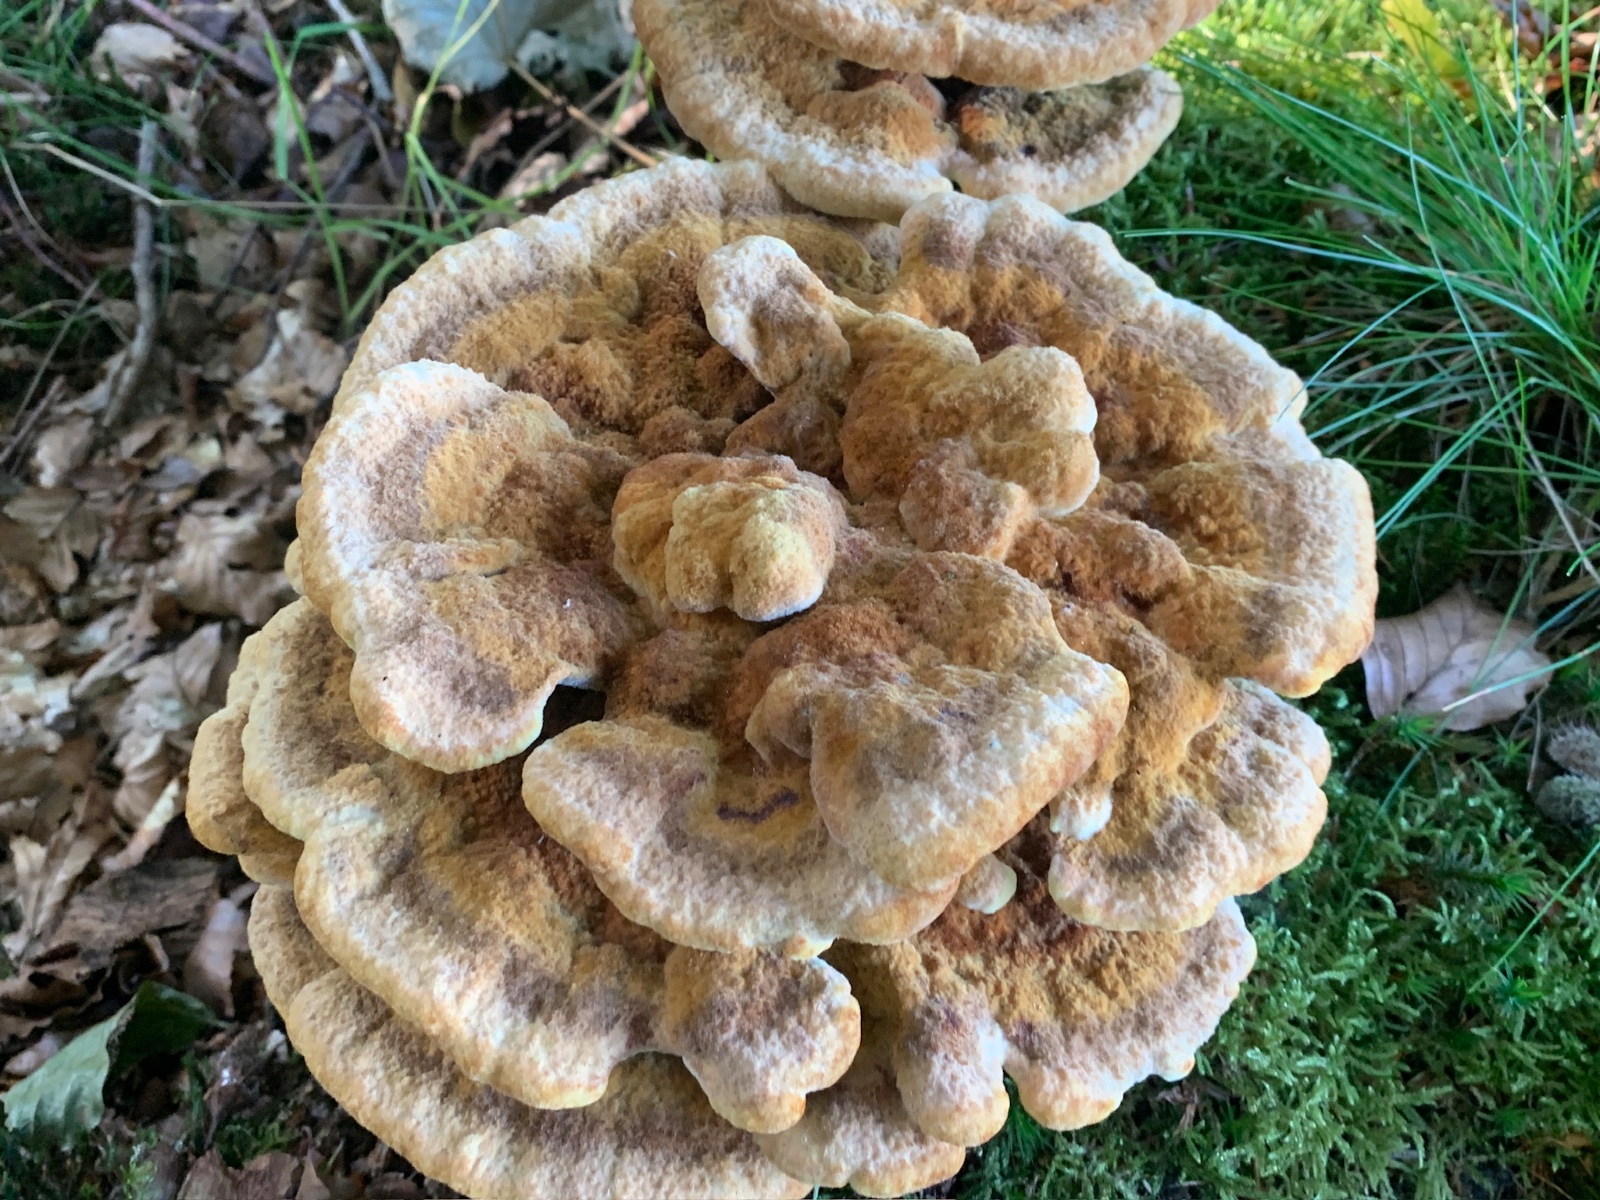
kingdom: Fungi
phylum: Basidiomycota
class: Agaricomycetes
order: Polyporales
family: Laetiporaceae
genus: Phaeolus
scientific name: Phaeolus schweinitzii
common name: brunporesvamp
